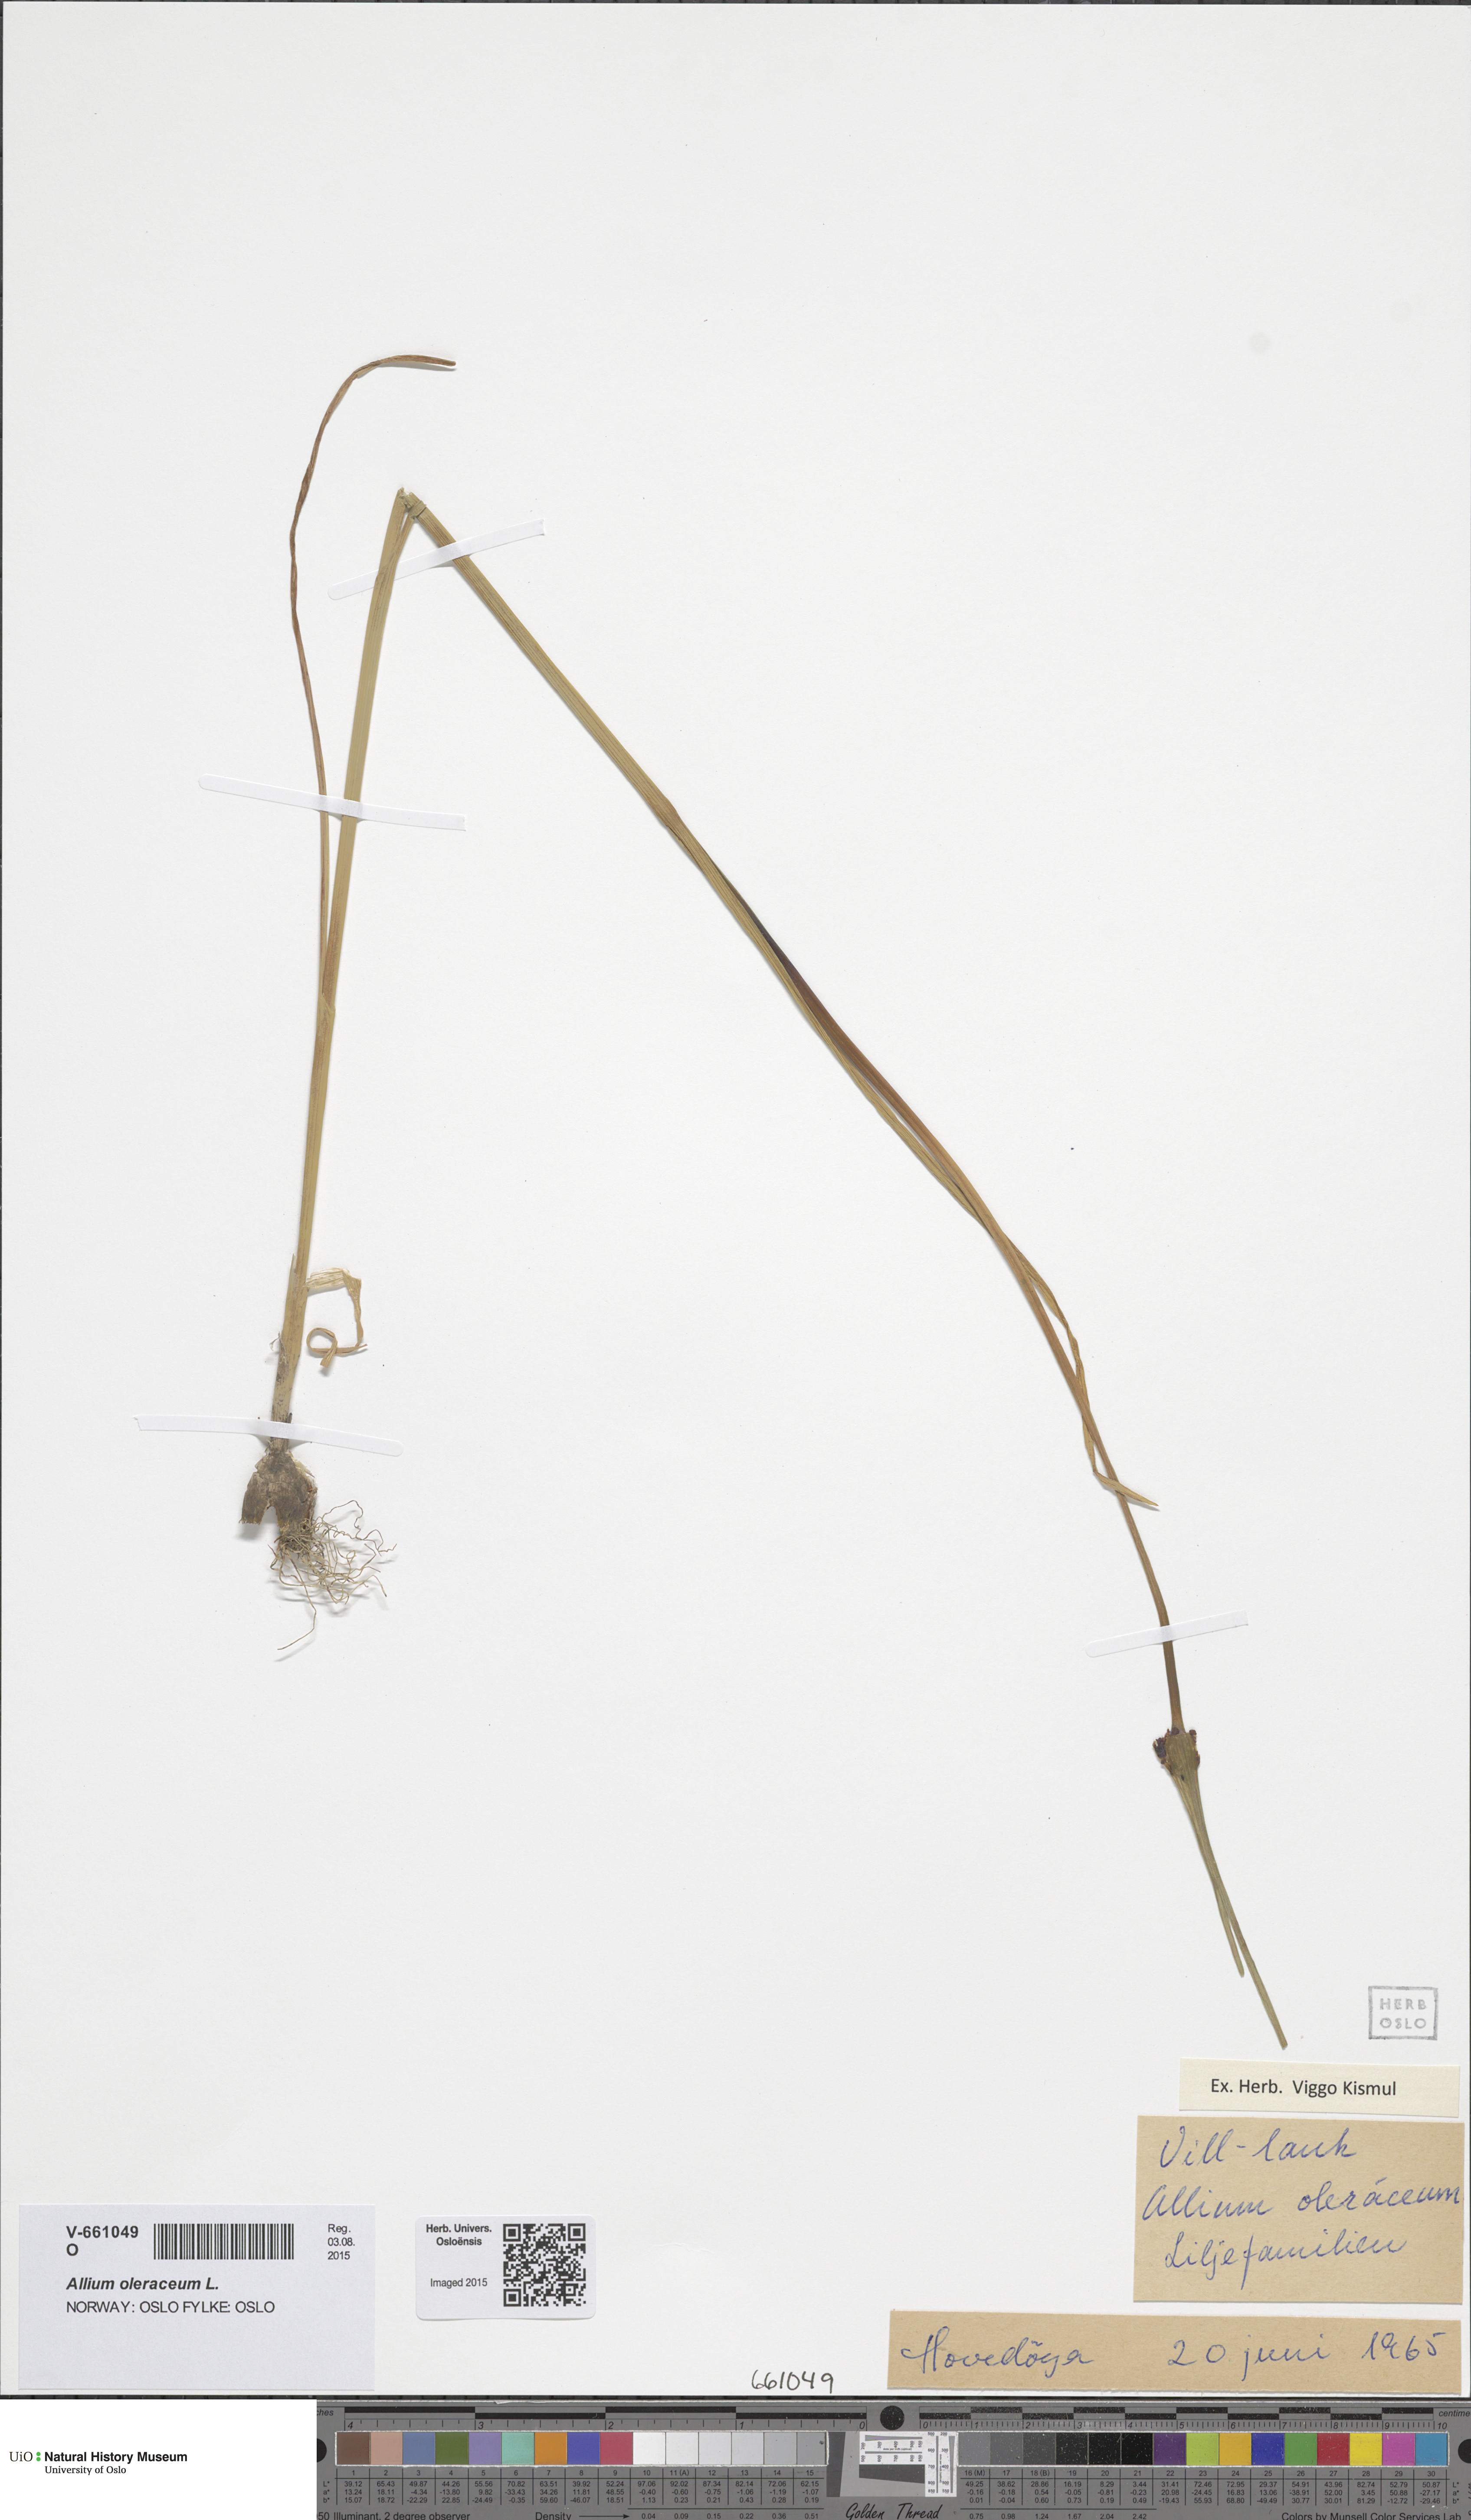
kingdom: Plantae
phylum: Tracheophyta
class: Liliopsida
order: Asparagales
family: Amaryllidaceae
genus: Allium
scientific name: Allium oleraceum
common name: Field garlic
